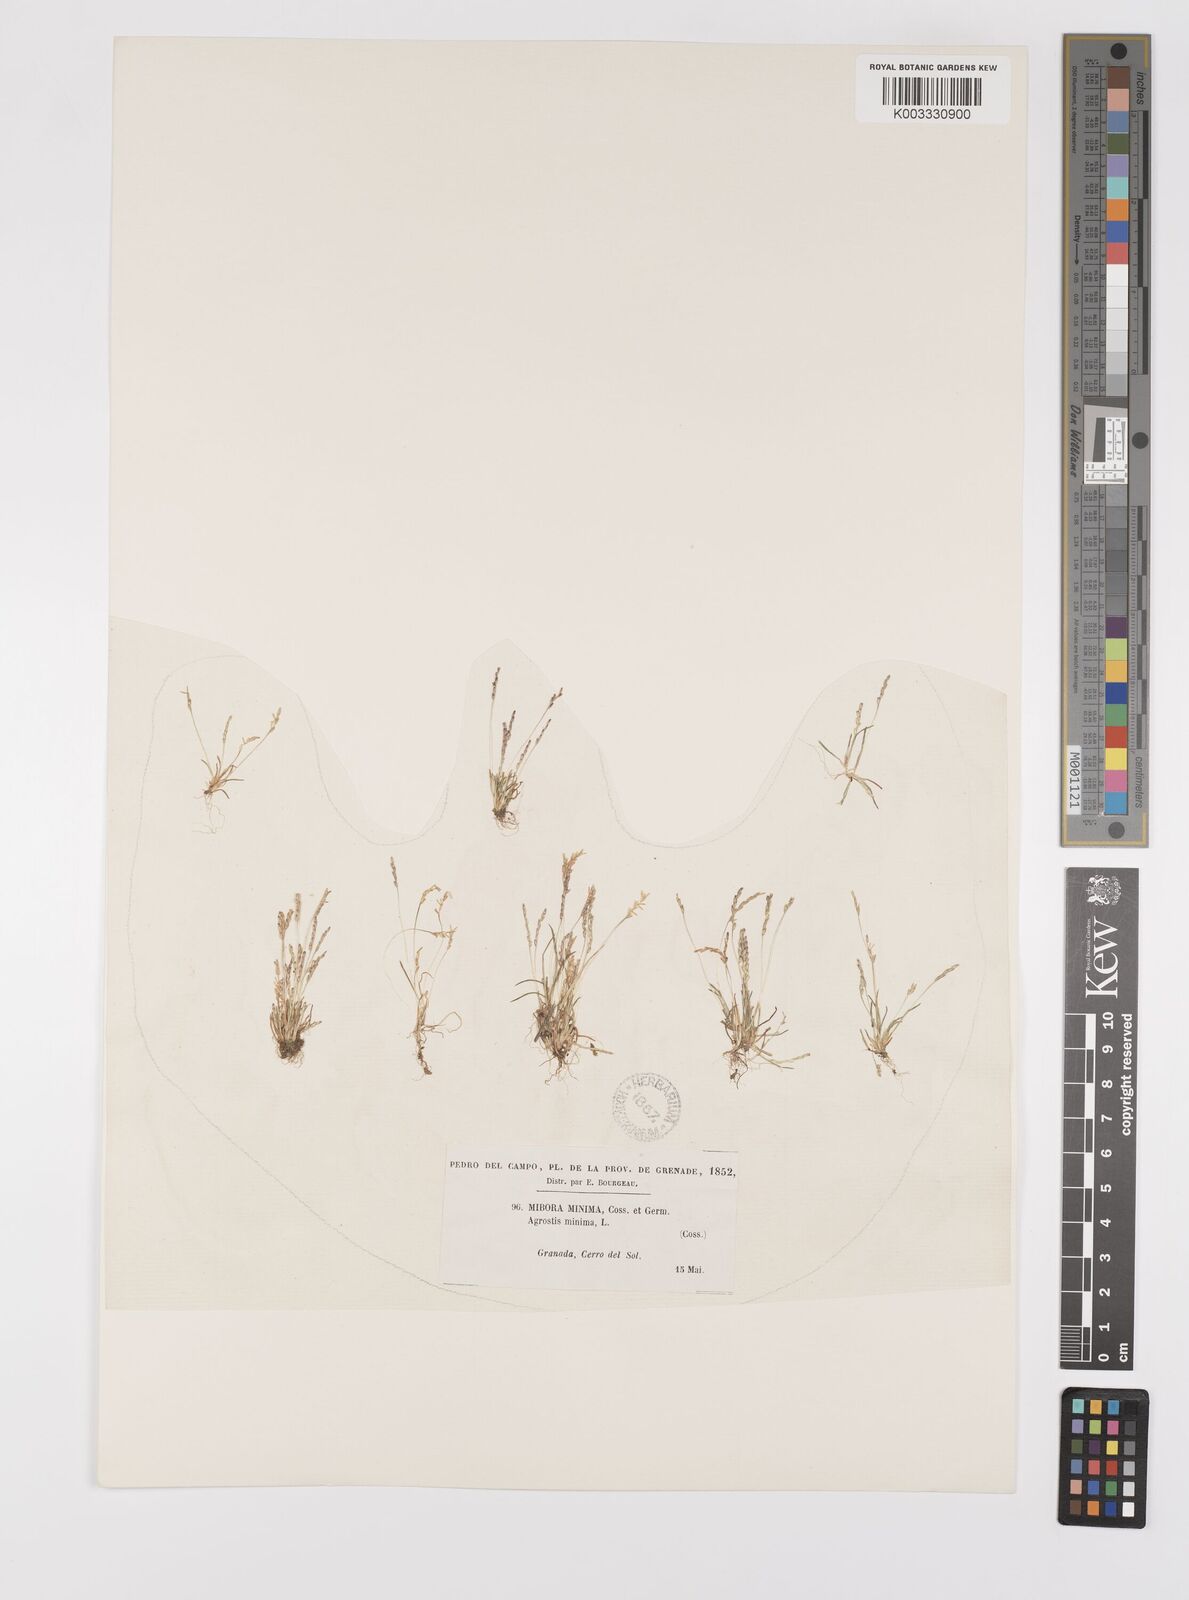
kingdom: Plantae
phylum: Tracheophyta
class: Liliopsida
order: Poales
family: Poaceae
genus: Mibora
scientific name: Mibora minima
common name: Early sand-grass
